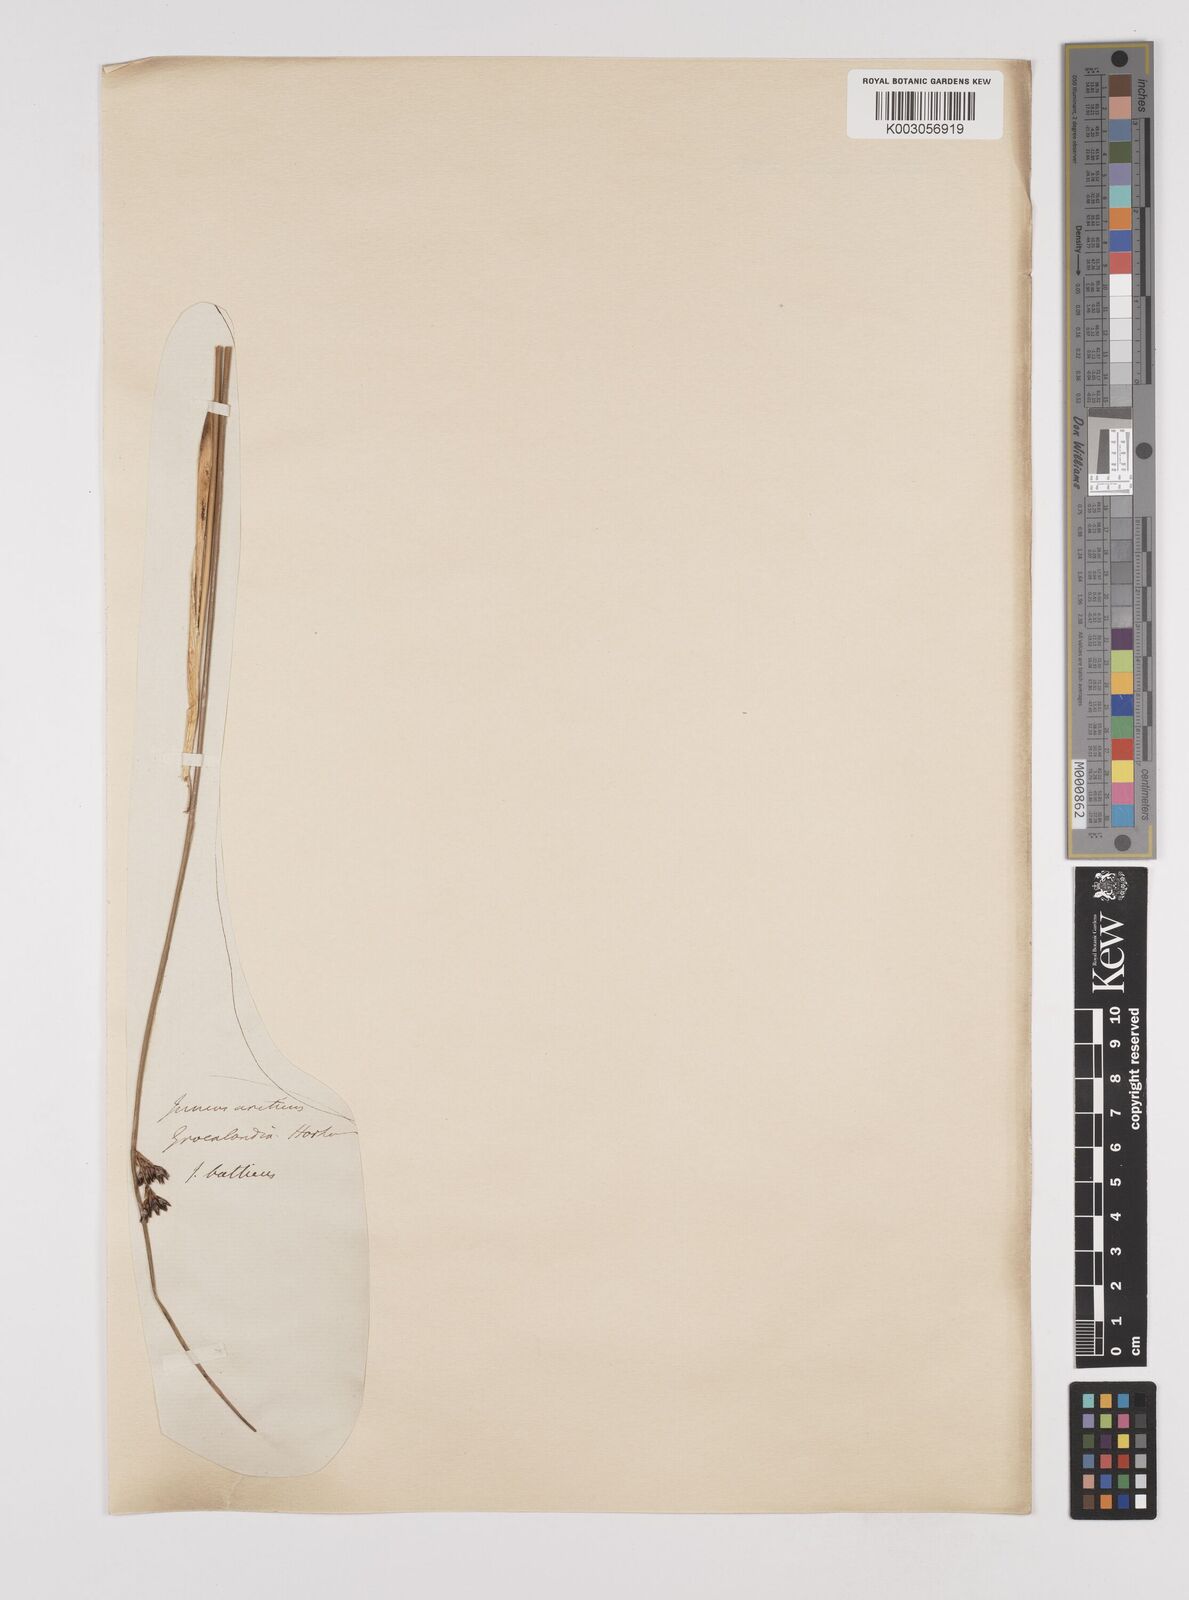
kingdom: Plantae
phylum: Tracheophyta
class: Liliopsida
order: Poales
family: Juncaceae
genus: Juncus
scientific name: Juncus arcticus
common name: Arctic rush
